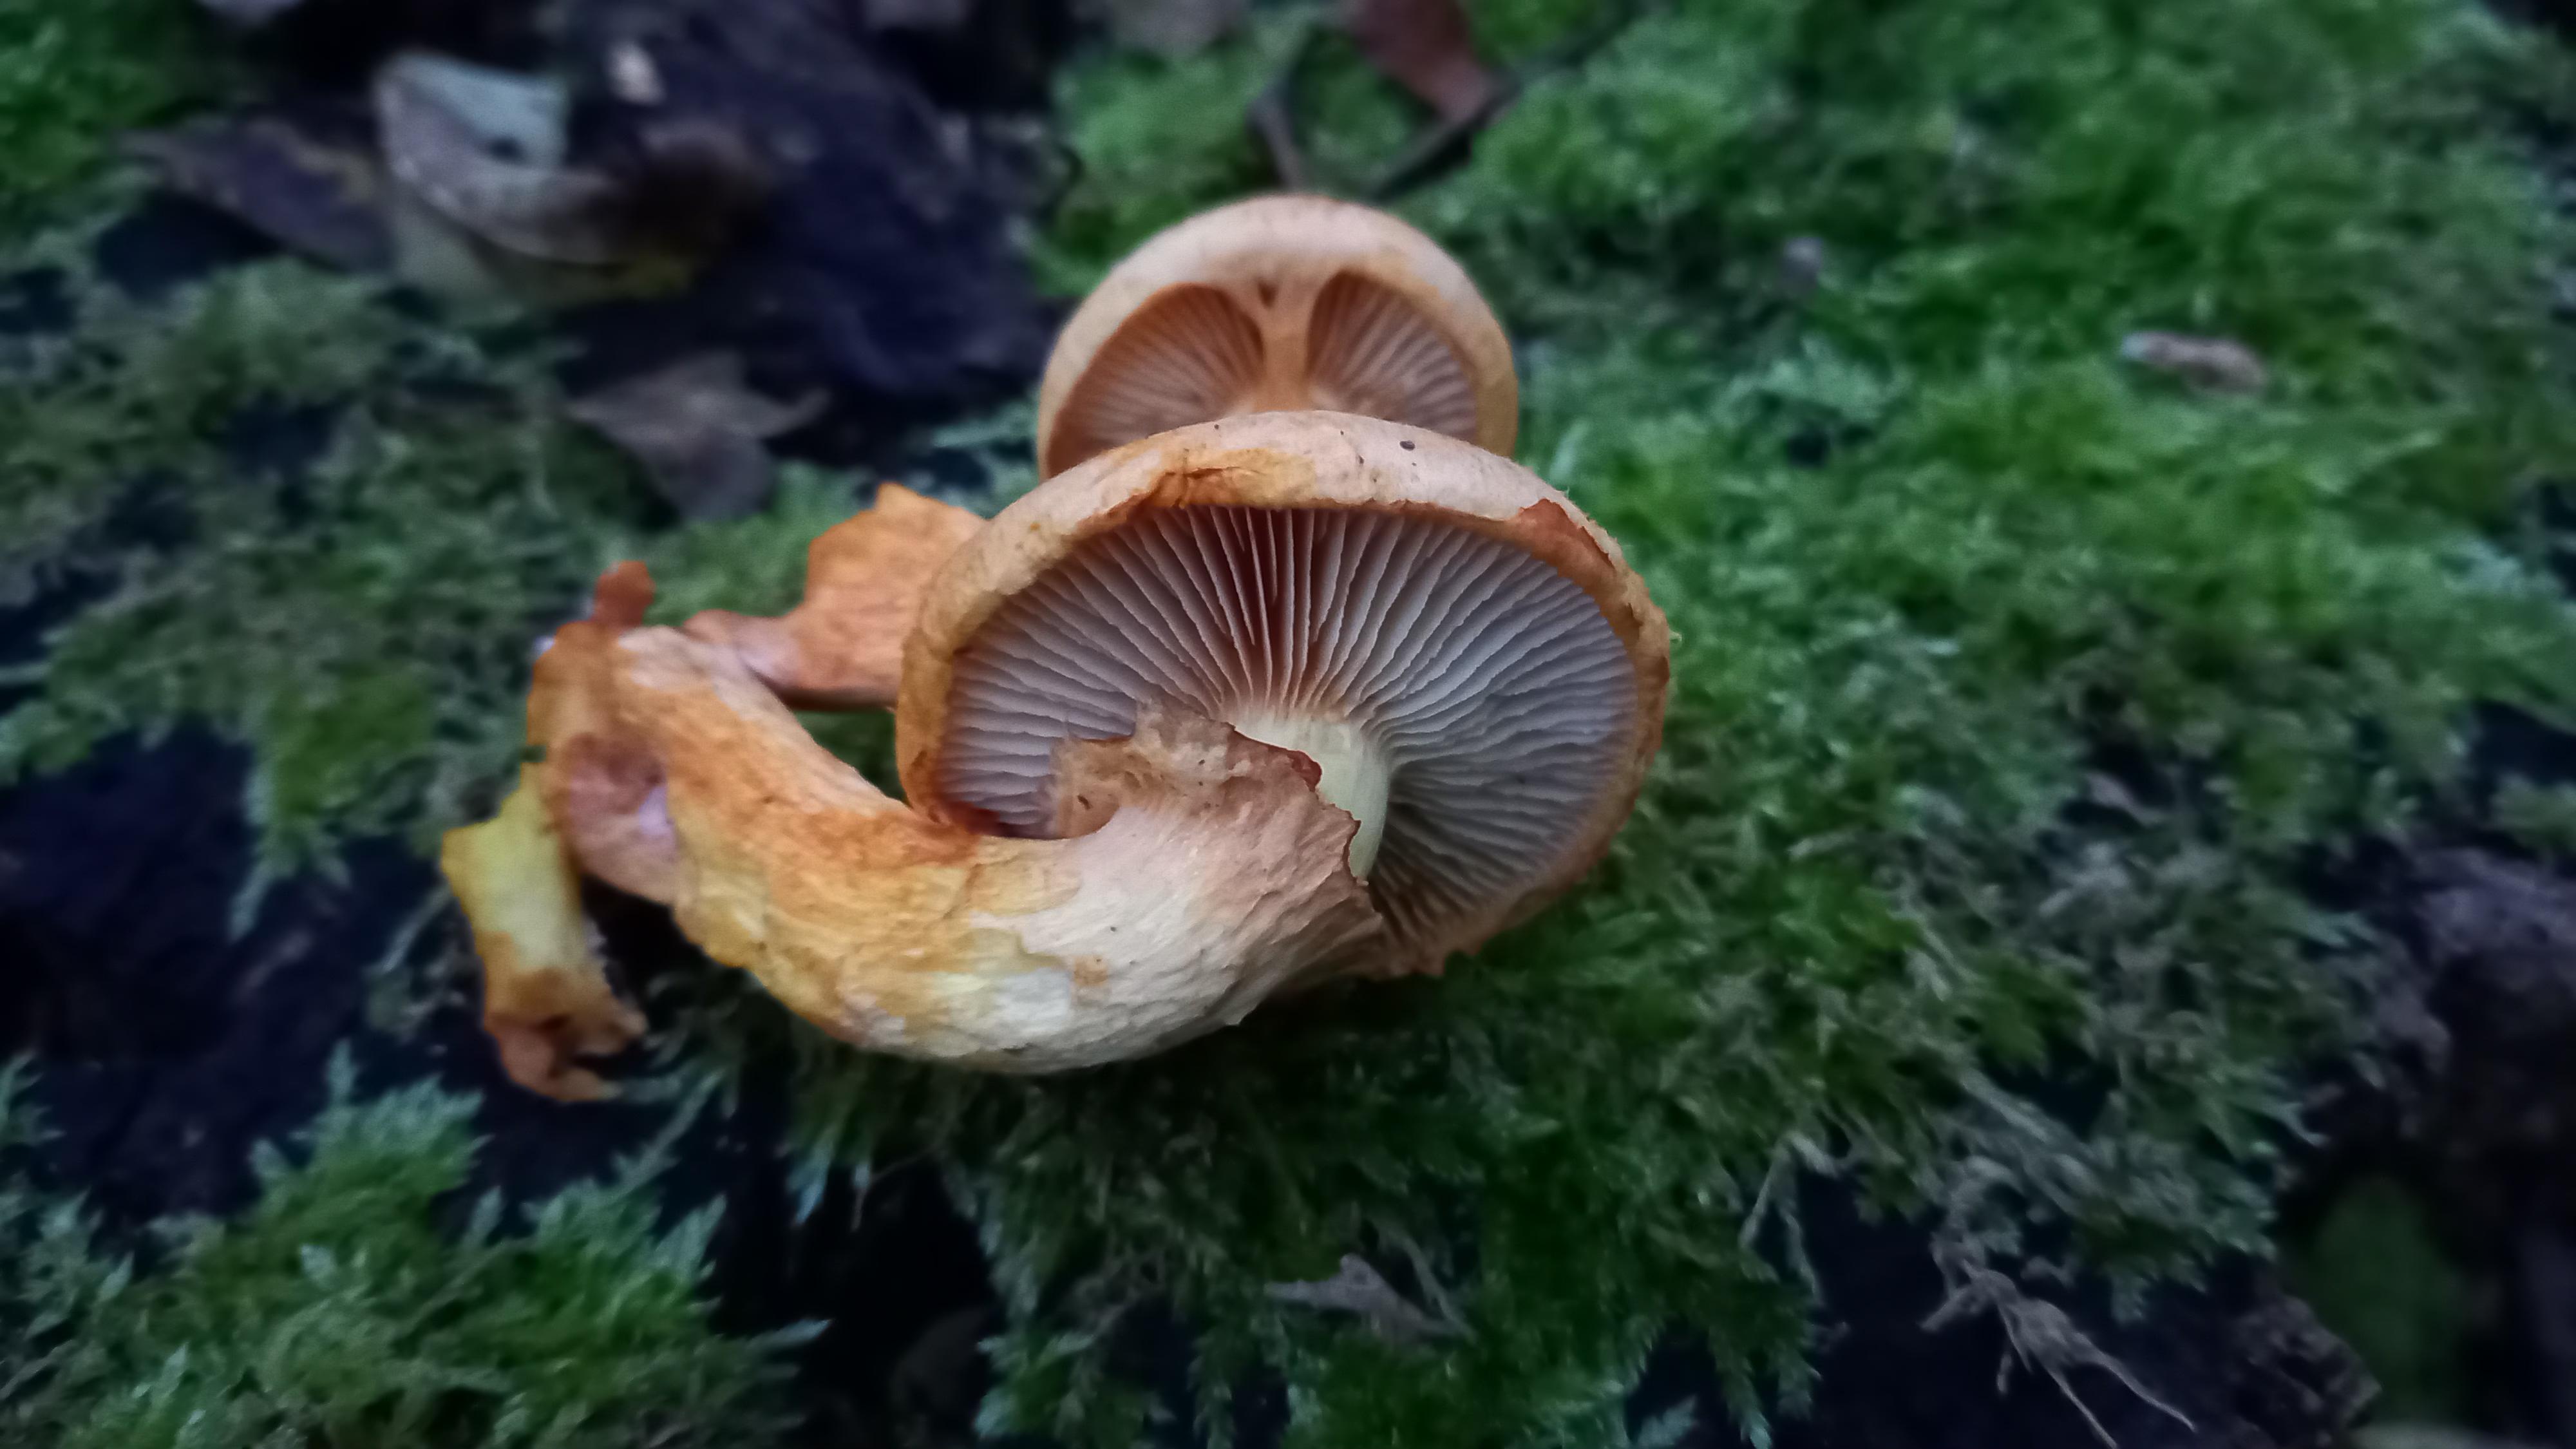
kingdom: Fungi
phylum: Basidiomycota
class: Agaricomycetes
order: Agaricales
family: Hymenogastraceae
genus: Gymnopilus
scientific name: Gymnopilus spectabilis
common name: fibret flammehat
